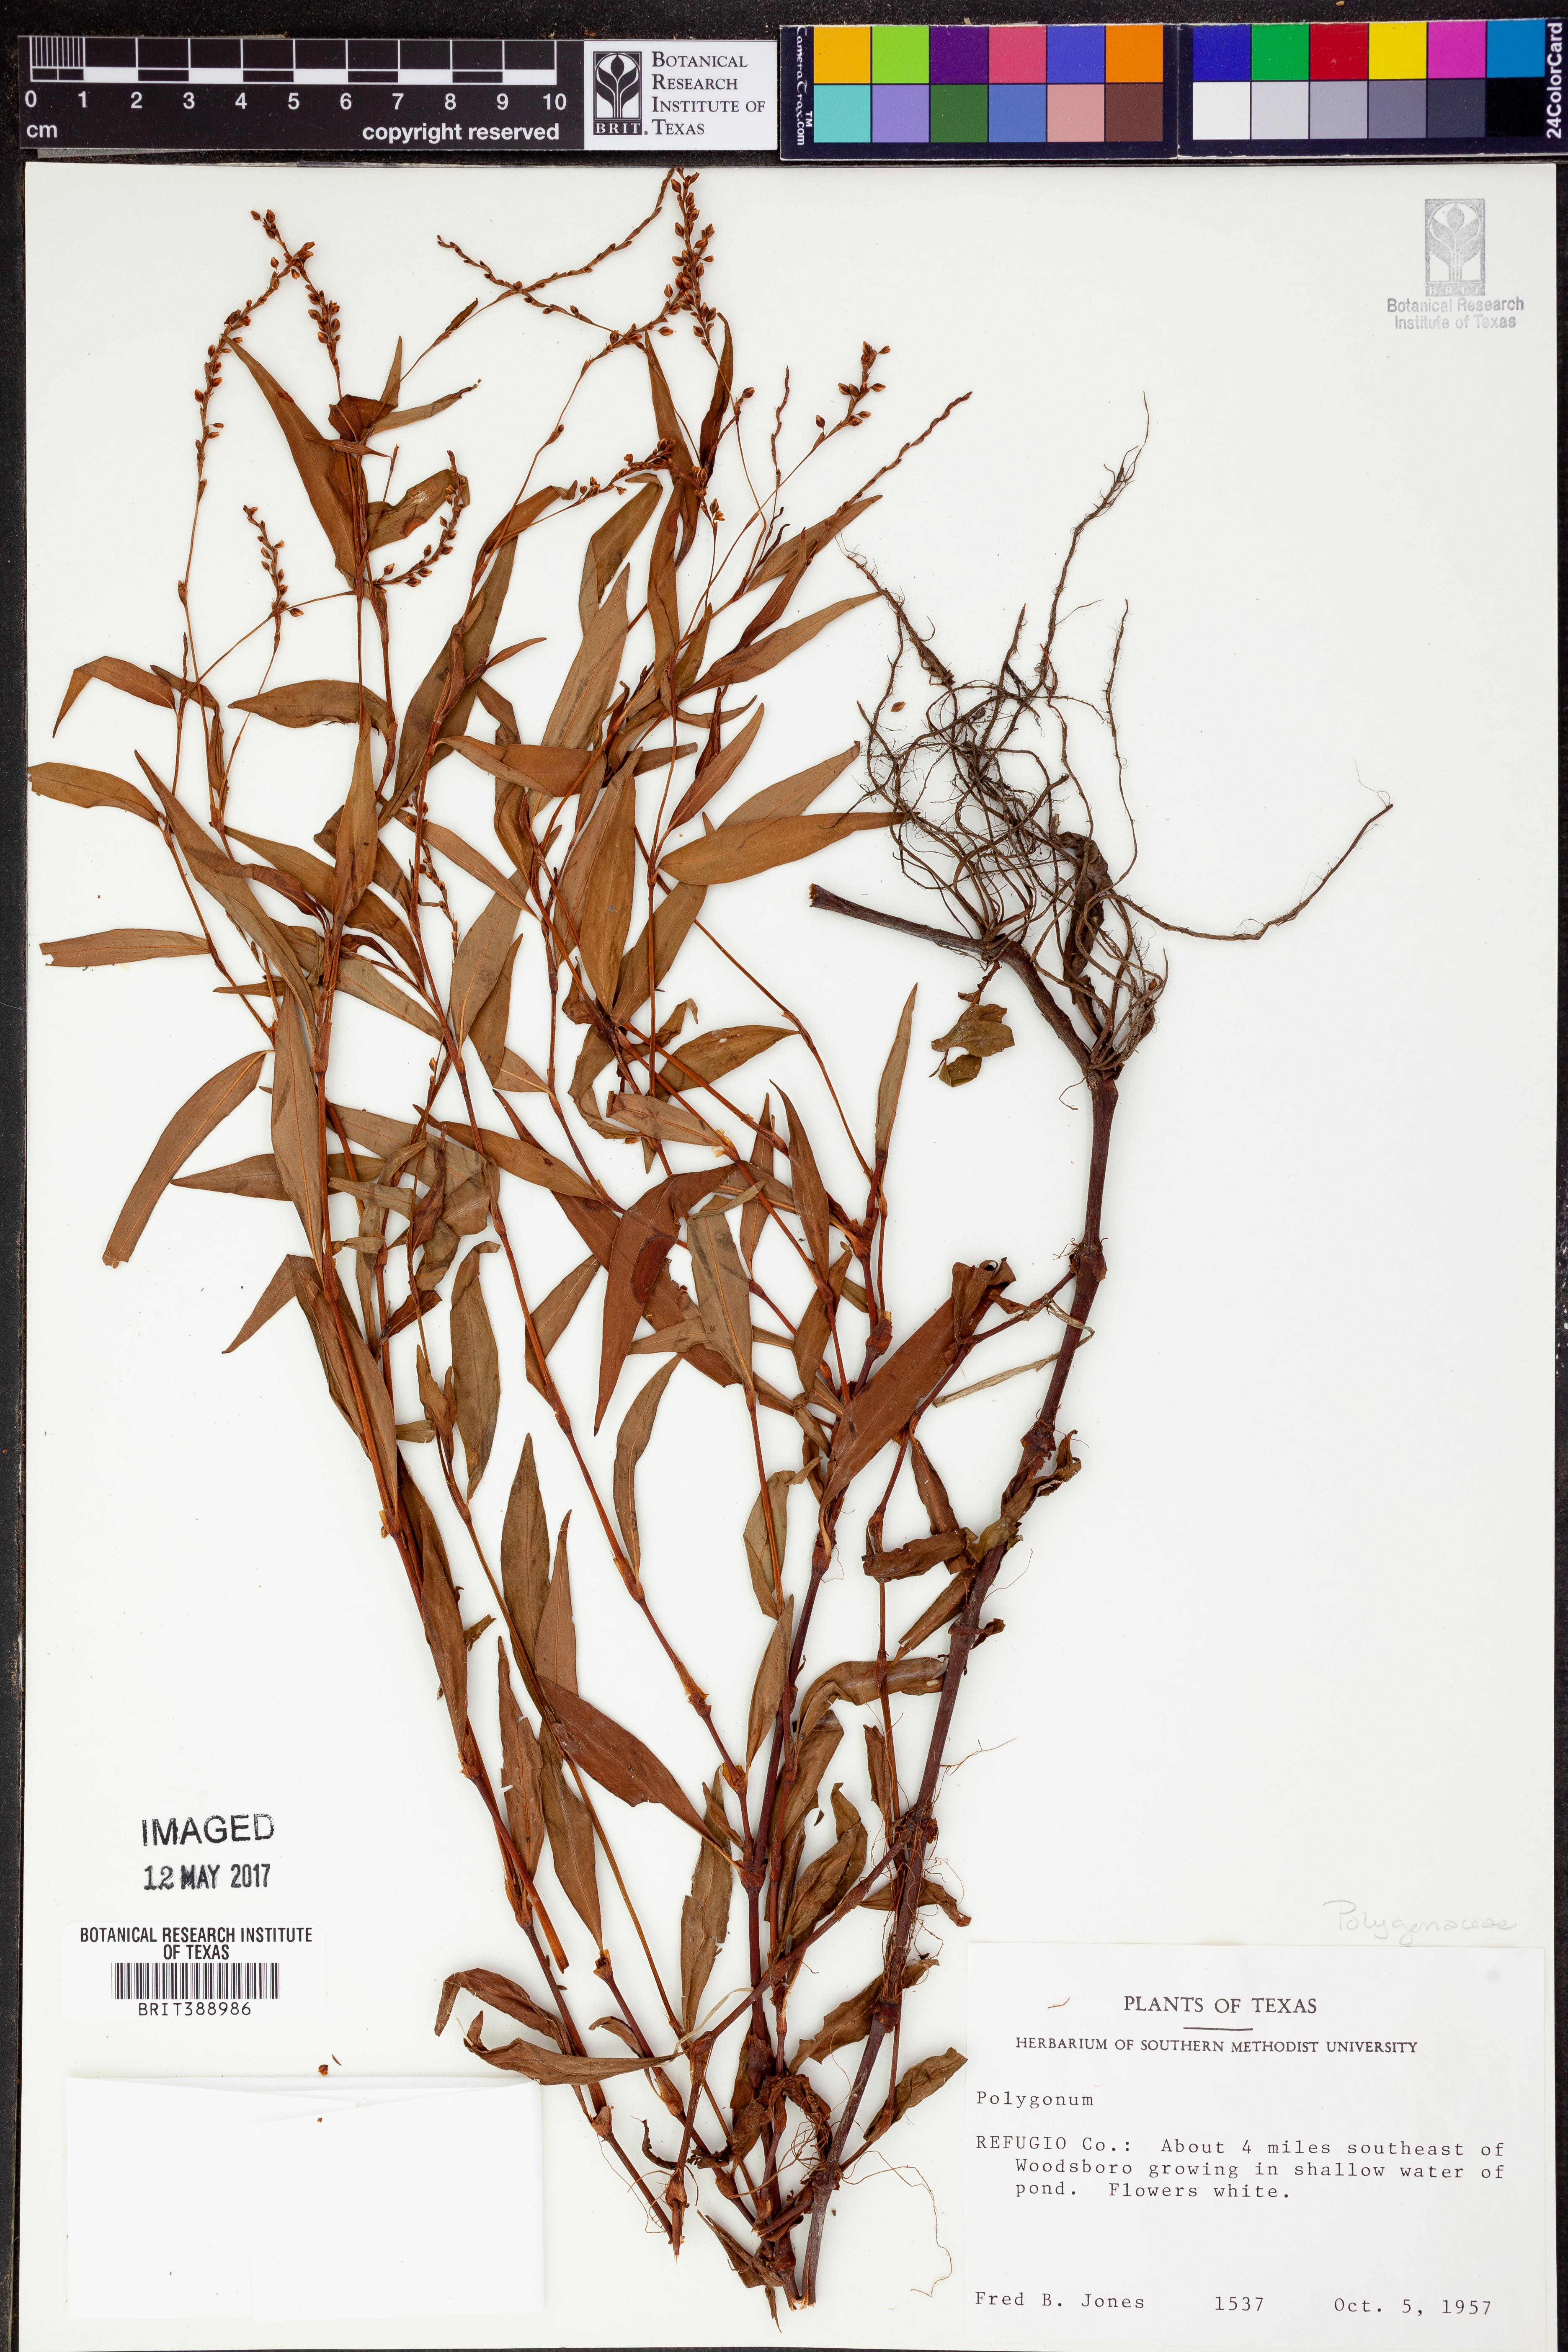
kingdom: Plantae
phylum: Tracheophyta
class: Magnoliopsida
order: Caryophyllales
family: Polygonaceae
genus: Polygonum
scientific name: Polygonum
